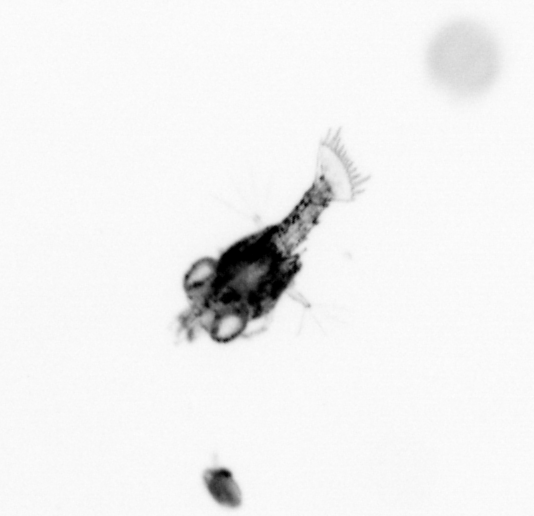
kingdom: Animalia
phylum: Arthropoda
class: Malacostraca
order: Decapoda
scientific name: Decapoda
